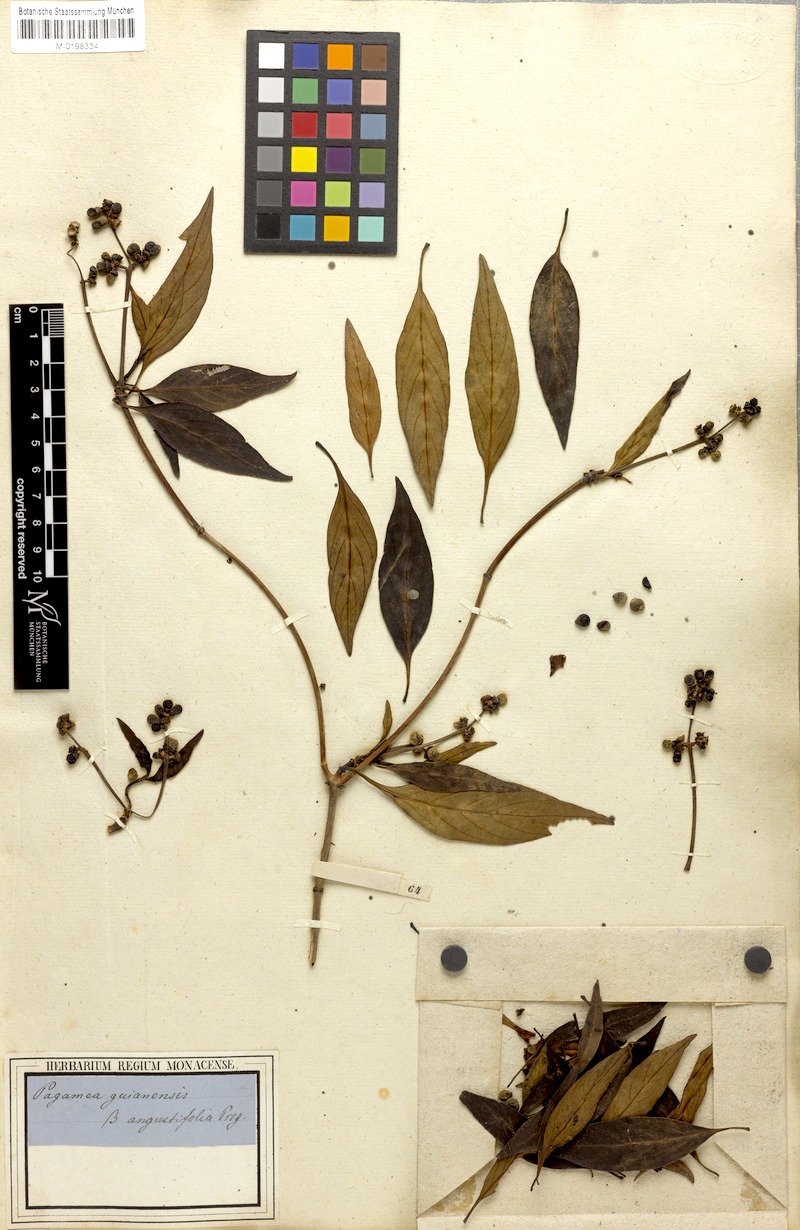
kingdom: Plantae
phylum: Tracheophyta
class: Magnoliopsida
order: Gentianales
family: Rubiaceae
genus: Pagamea
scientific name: Pagamea guianensis
